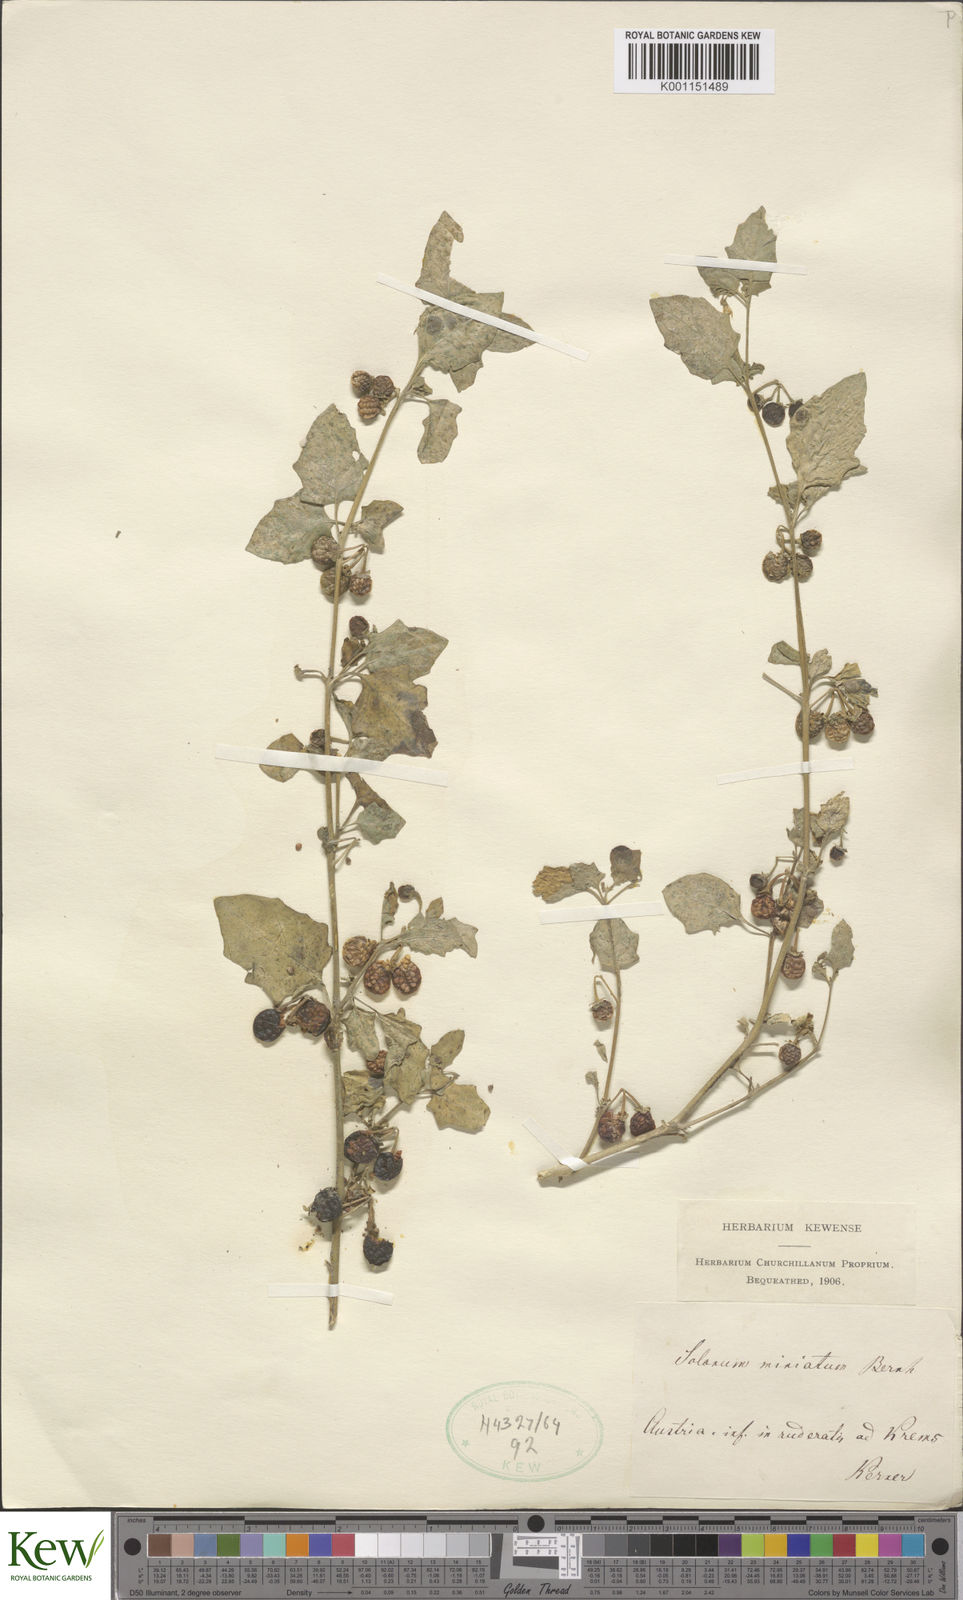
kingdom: Plantae
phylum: Tracheophyta
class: Magnoliopsida
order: Solanales
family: Solanaceae
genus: Solanum
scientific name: Solanum alatum
